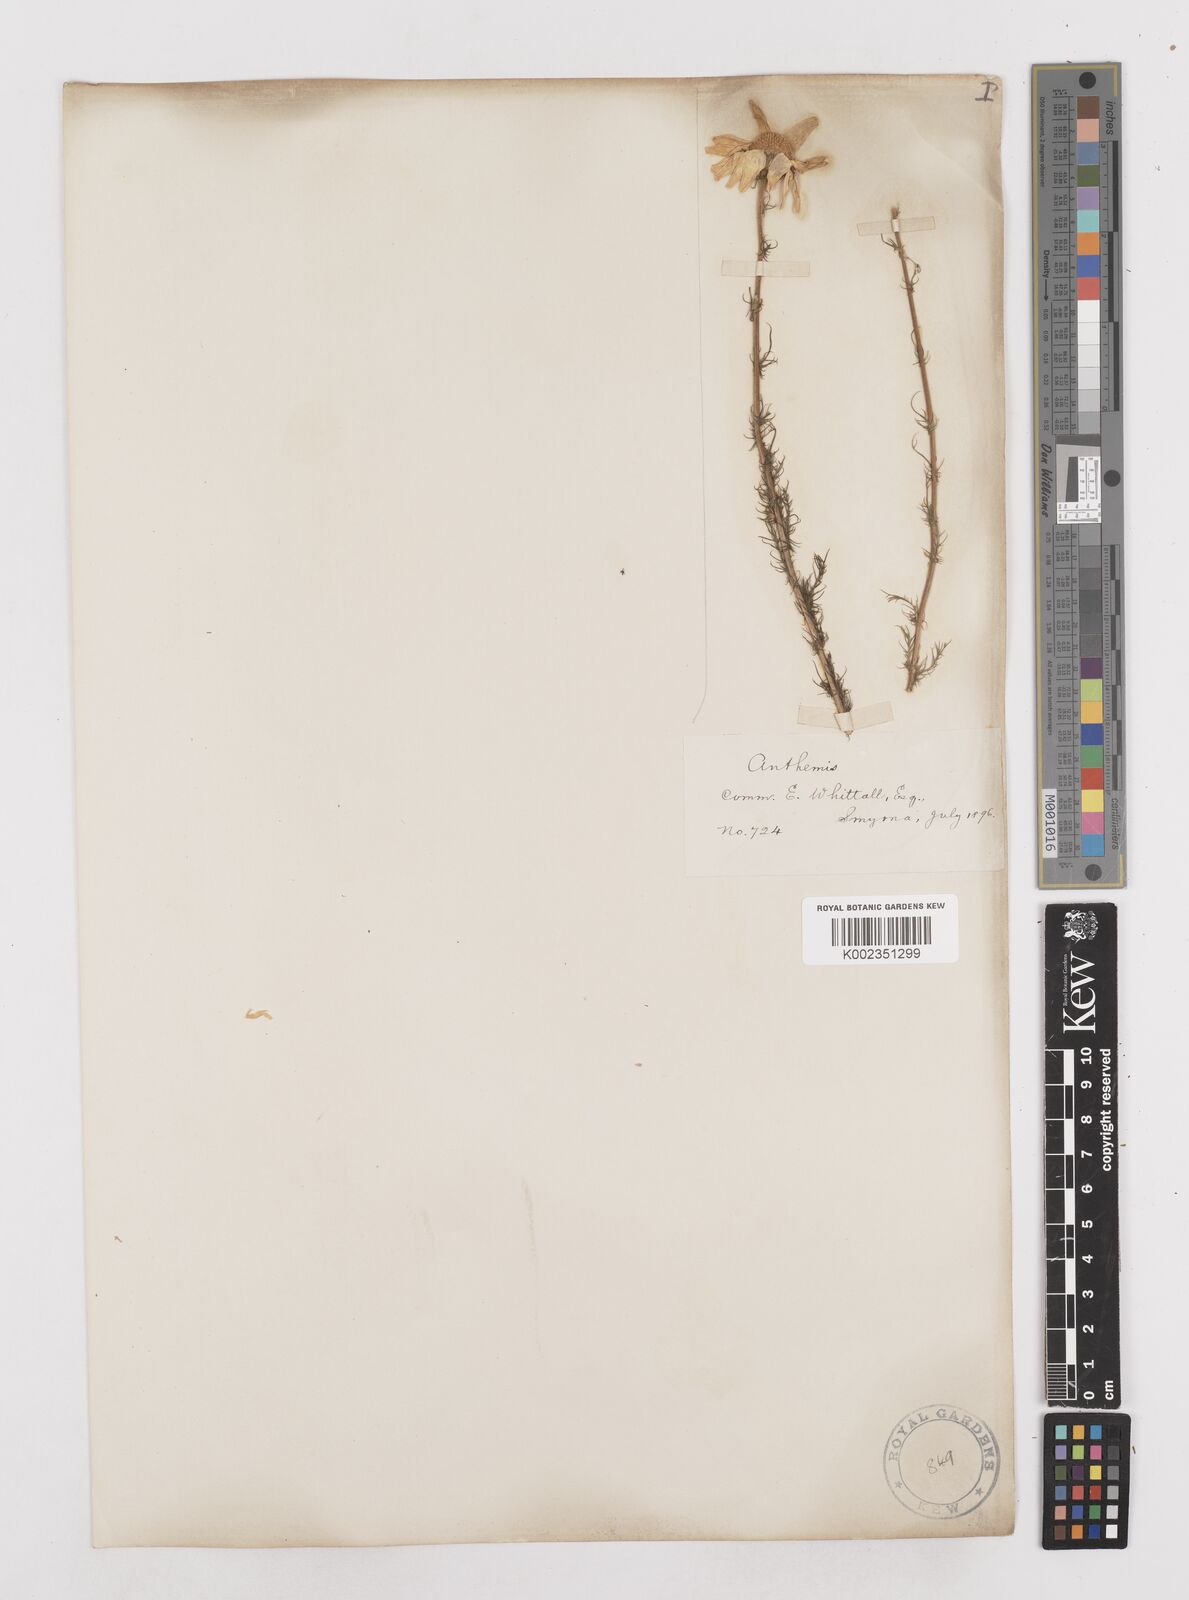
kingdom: Plantae
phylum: Tracheophyta
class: Magnoliopsida
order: Asterales
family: Asteraceae
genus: Anthemis
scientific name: Anthemis aciphylla
